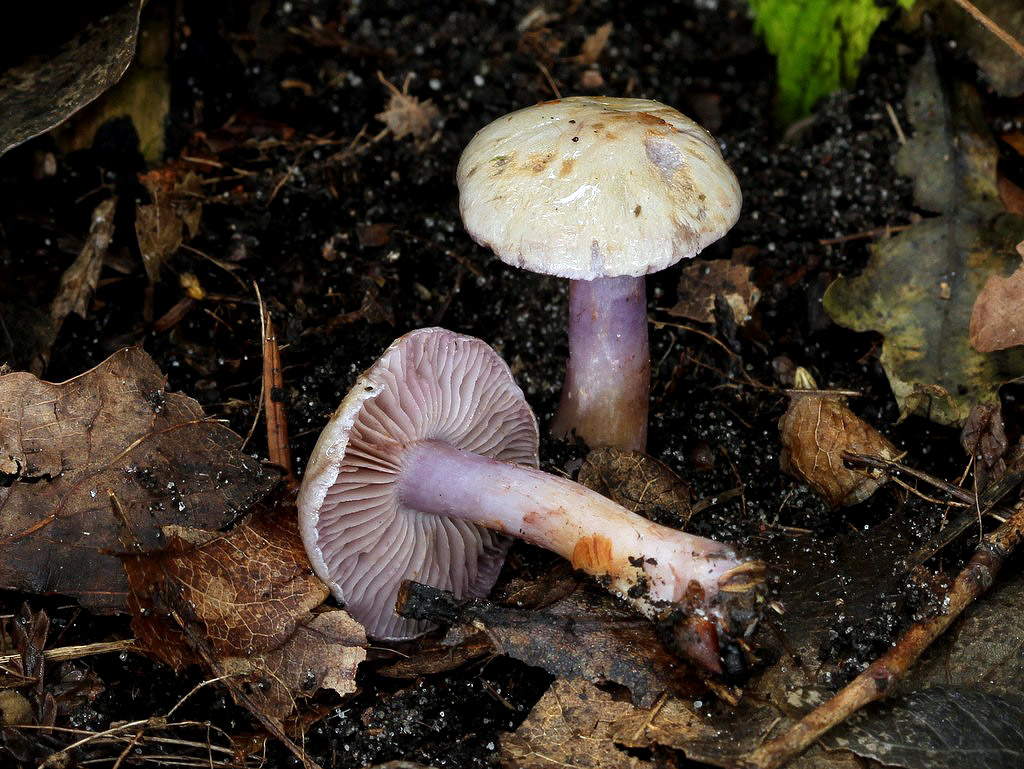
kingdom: Fungi
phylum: Basidiomycota
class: Agaricomycetes
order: Agaricales
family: Cortinariaceae
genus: Thaxterogaster
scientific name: Thaxterogaster subporphyropus
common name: ametyst-slørhat
